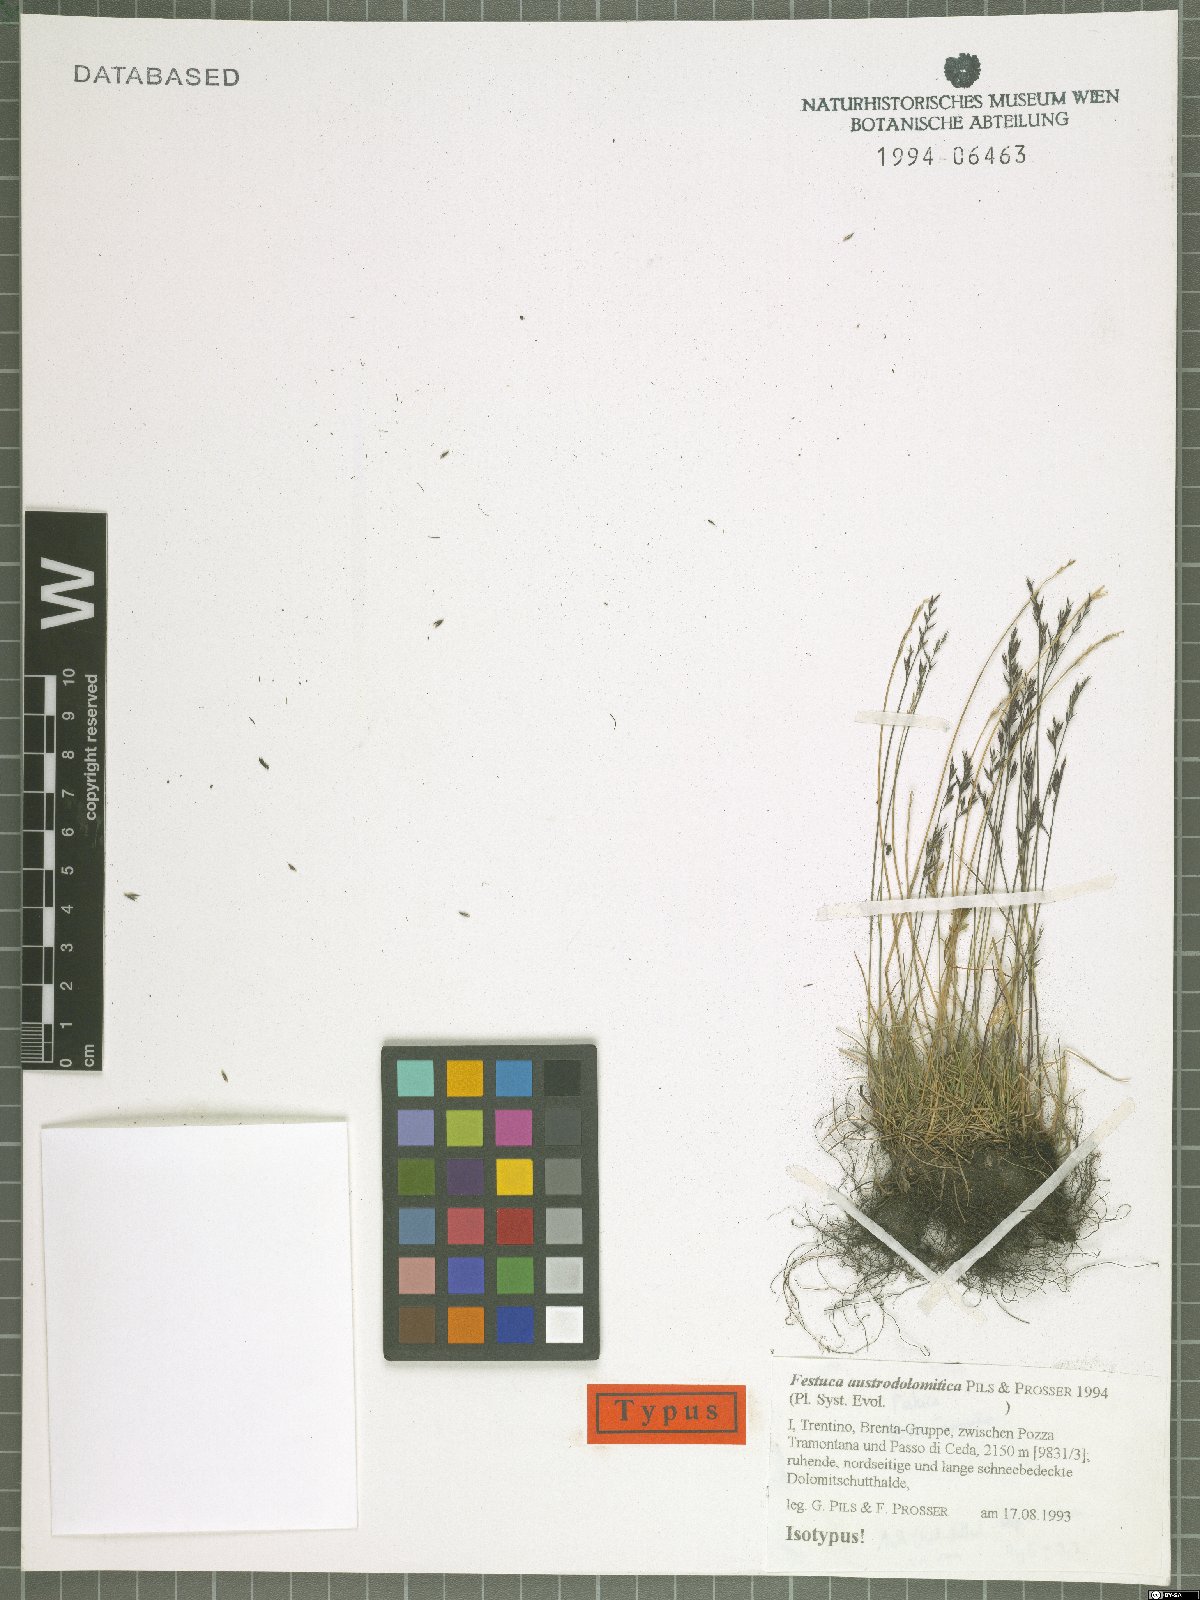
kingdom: Plantae
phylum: Tracheophyta
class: Liliopsida
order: Poales
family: Poaceae
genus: Festuca
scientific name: Festuca halleri
